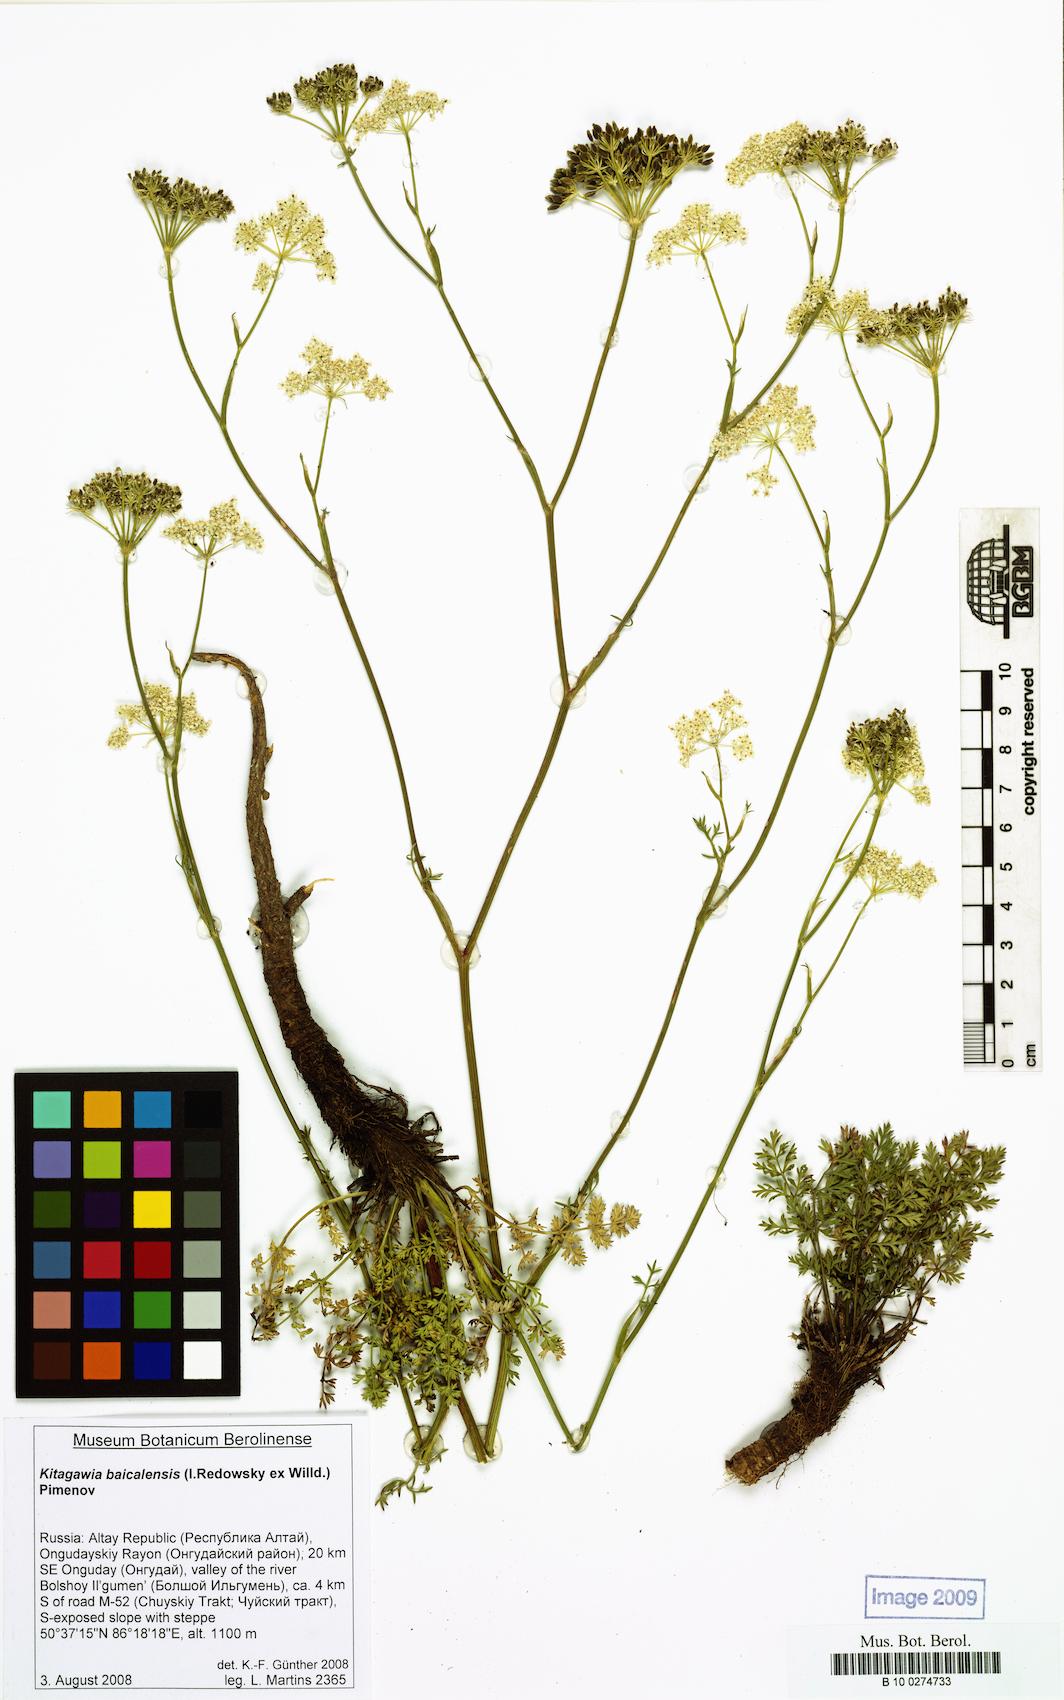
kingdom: Plantae
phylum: Tracheophyta
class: Magnoliopsida
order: Apiales
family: Apiaceae
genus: Kitagawia
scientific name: Kitagawia baicalensis
